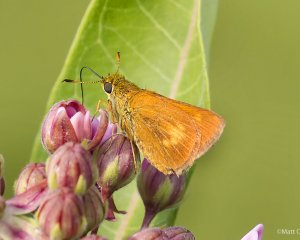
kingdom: Animalia
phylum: Arthropoda
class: Insecta
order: Lepidoptera
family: Hesperiidae
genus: Euphyes
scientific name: Euphyes conspicua
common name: Black Dash
